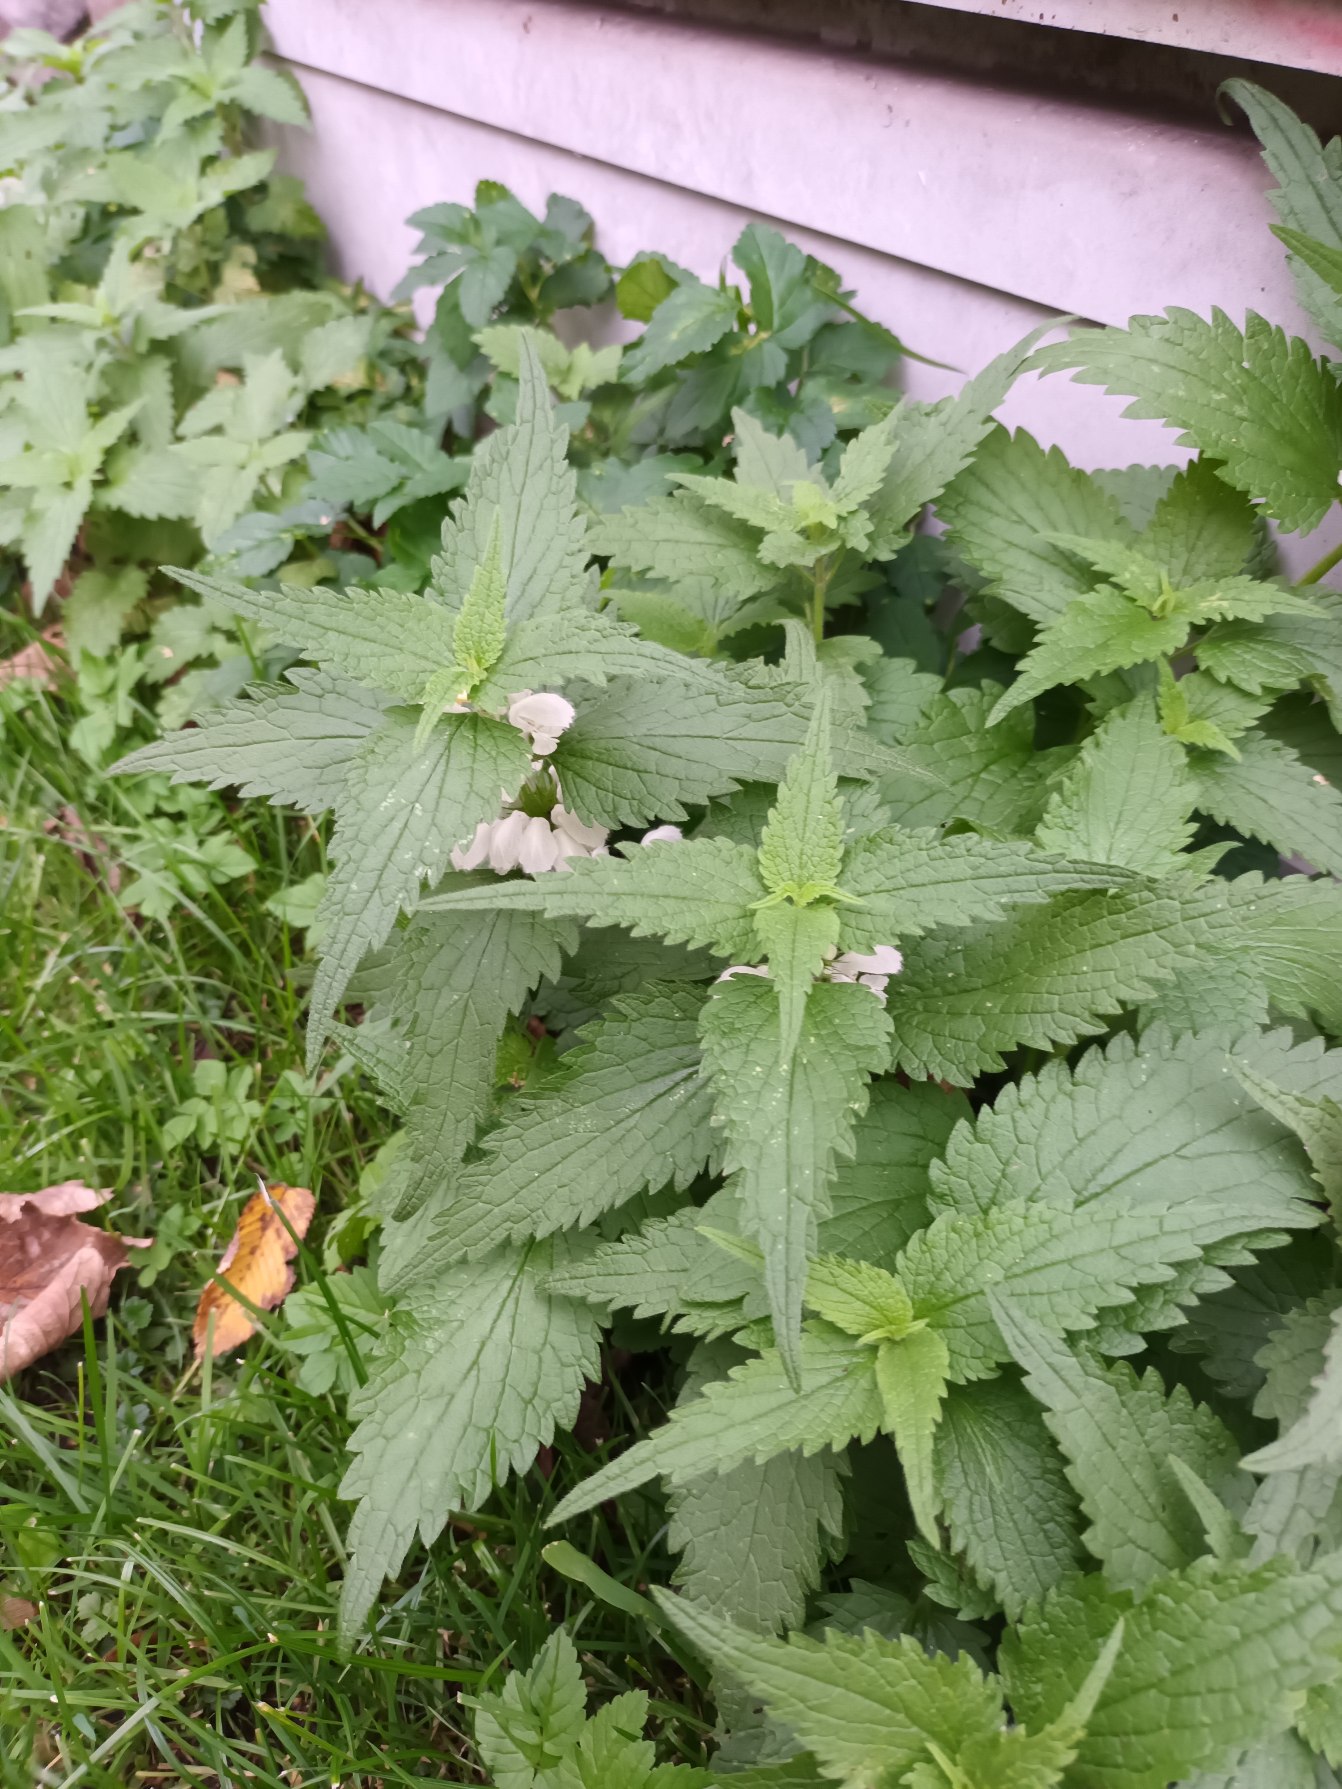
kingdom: Plantae
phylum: Tracheophyta
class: Magnoliopsida
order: Lamiales
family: Lamiaceae
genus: Lamium
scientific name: Lamium album
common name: Døvnælde
